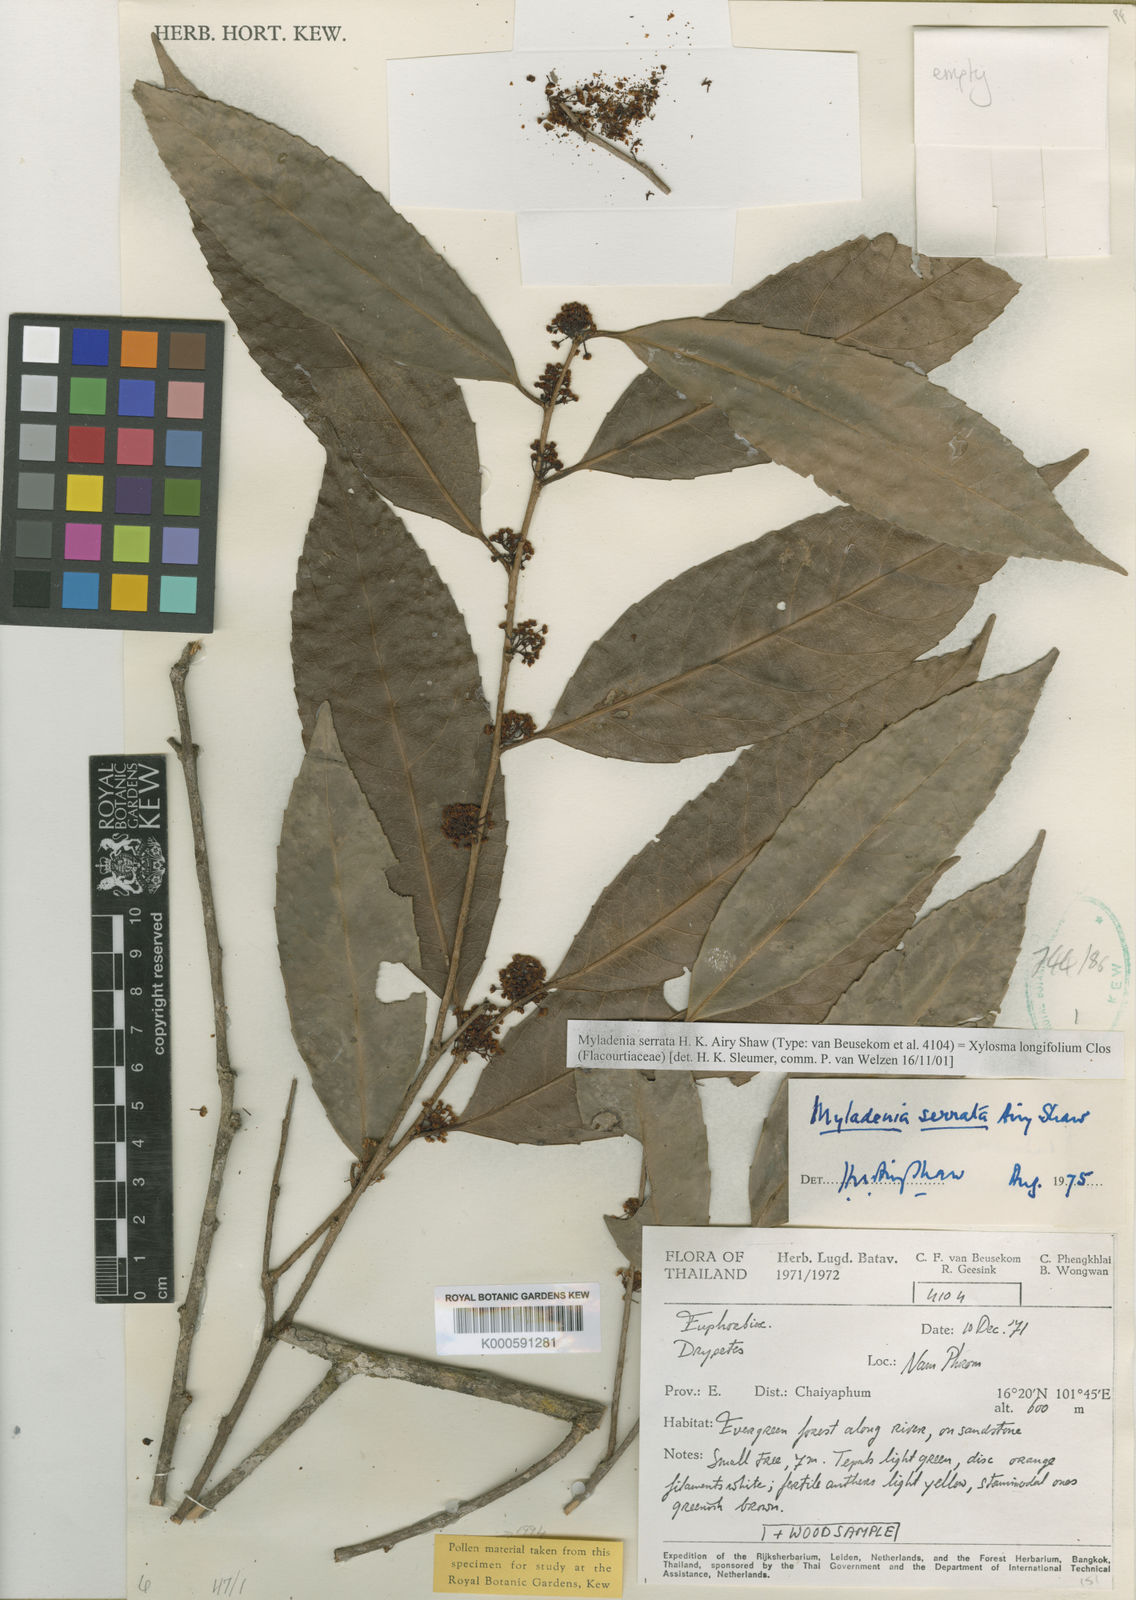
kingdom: Plantae
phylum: Tracheophyta
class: Magnoliopsida
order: Malpighiales
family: Salicaceae
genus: Xylosma
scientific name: Xylosma longifolia
